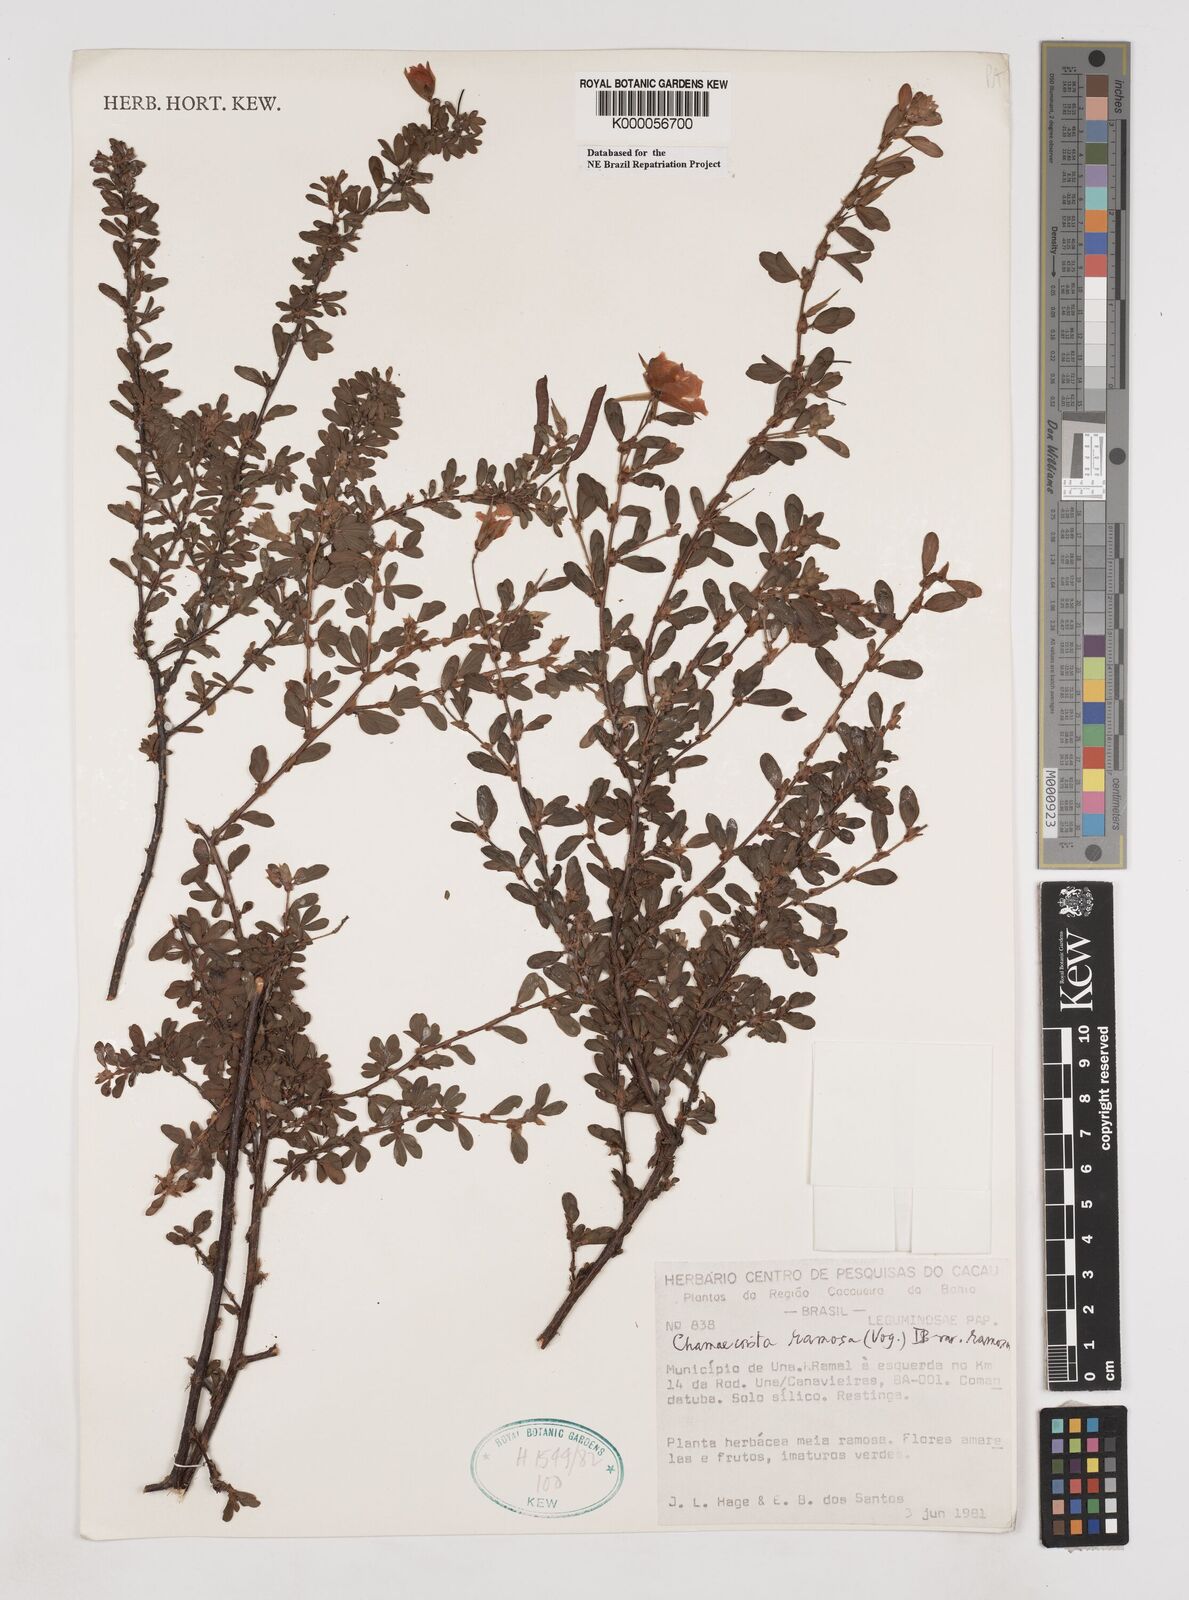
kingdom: Plantae
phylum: Tracheophyta
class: Magnoliopsida
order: Fabales
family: Fabaceae
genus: Chamaecrista
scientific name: Chamaecrista ramosa
